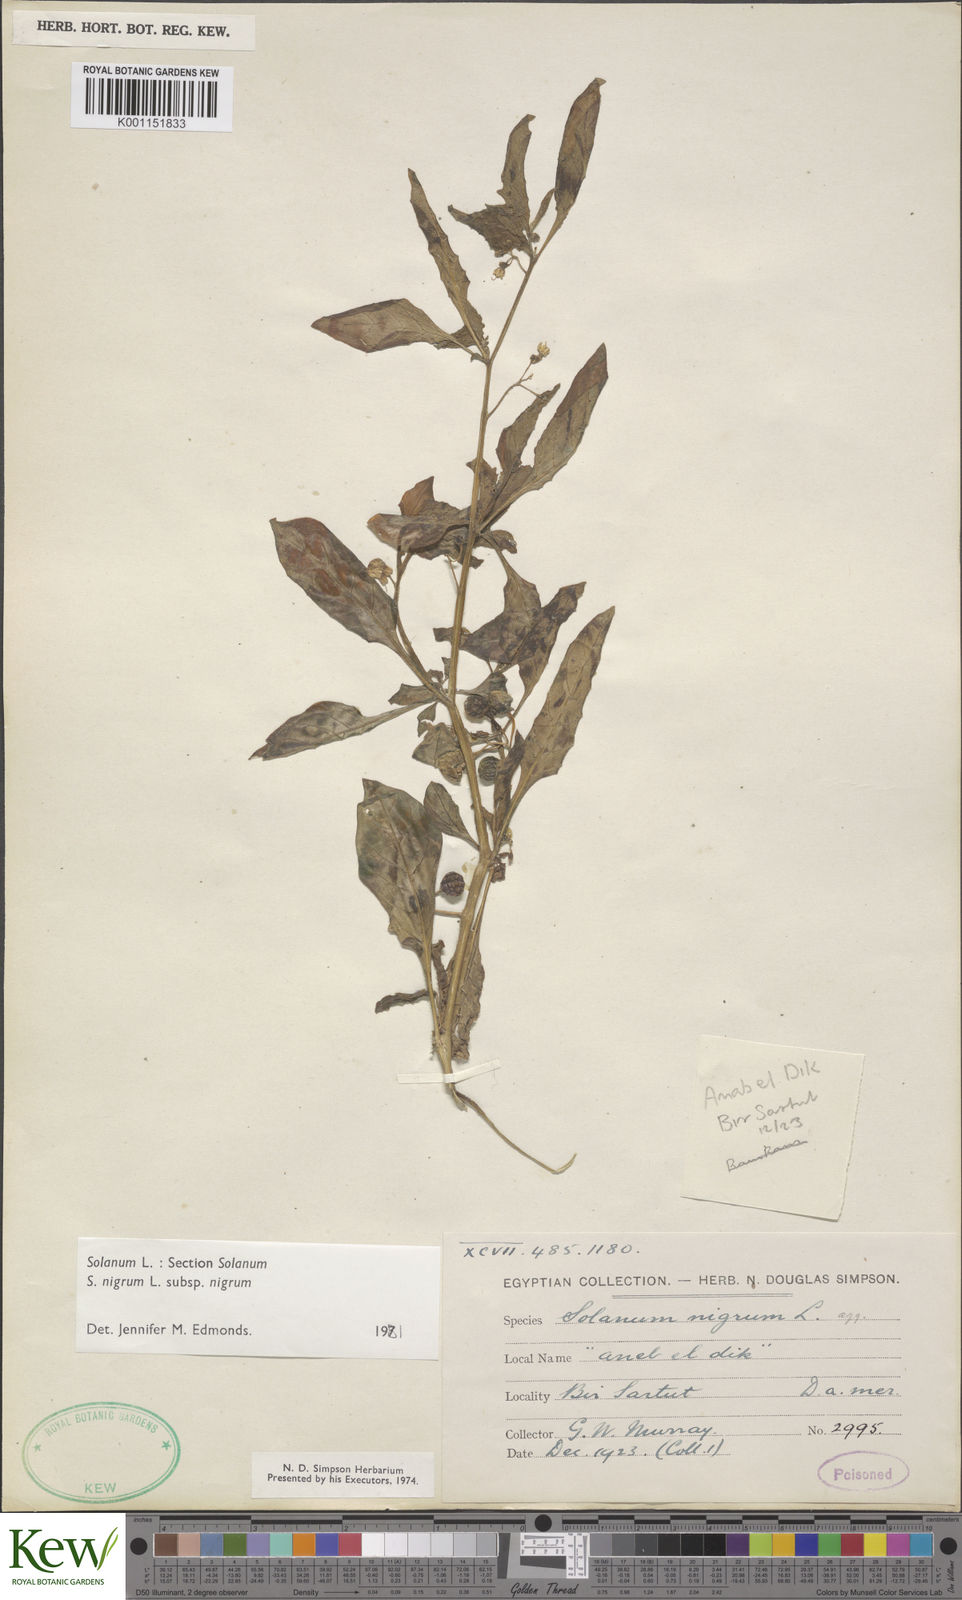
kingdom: Plantae
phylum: Tracheophyta
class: Magnoliopsida
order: Solanales
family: Solanaceae
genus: Solanum
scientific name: Solanum
